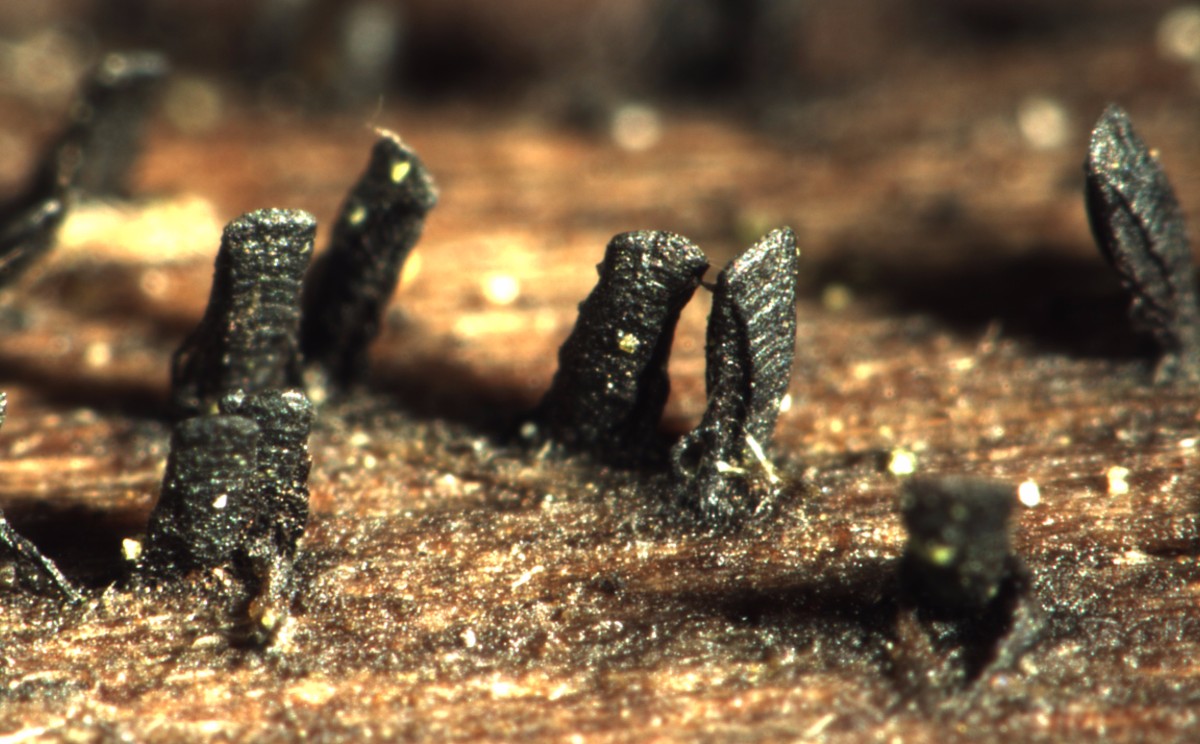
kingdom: Fungi
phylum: Ascomycota
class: Eurotiomycetes
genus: Glyphium
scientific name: Glyphium elatum
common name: kuløkse
